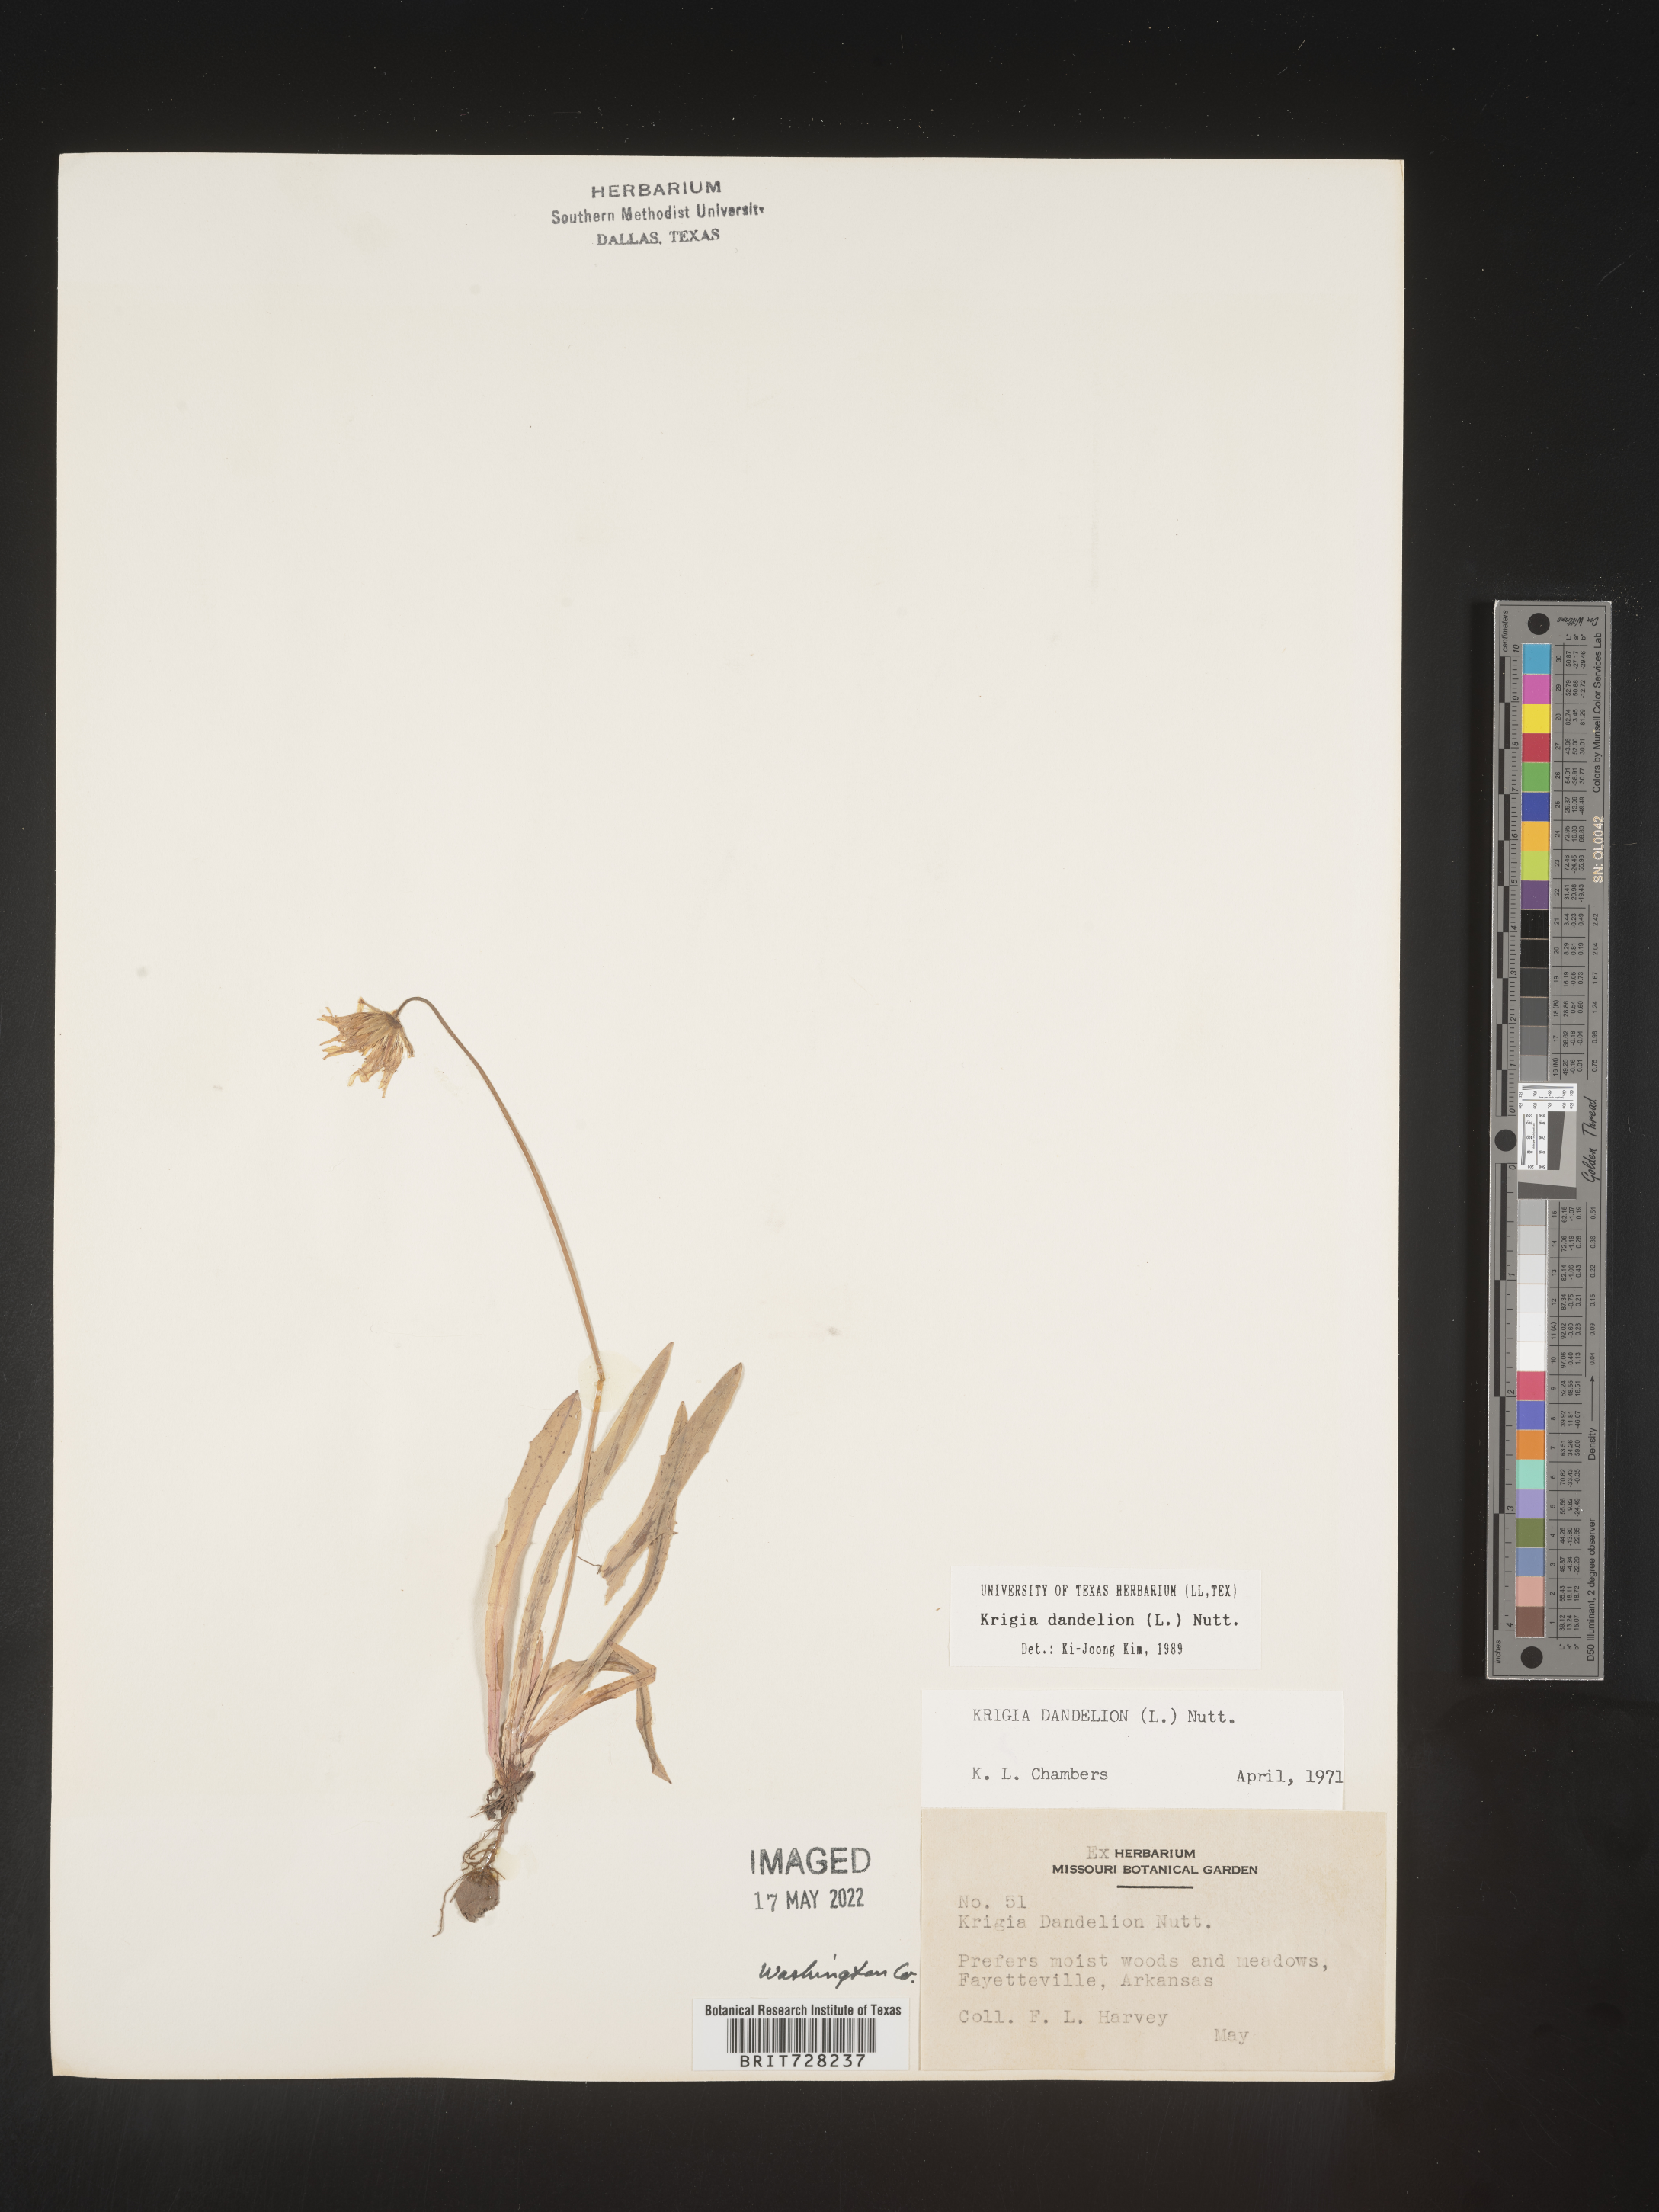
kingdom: Plantae
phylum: Tracheophyta
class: Magnoliopsida
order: Asterales
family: Asteraceae
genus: Krigia
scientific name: Krigia dandelion
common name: Colonial dwarf-dandelion
